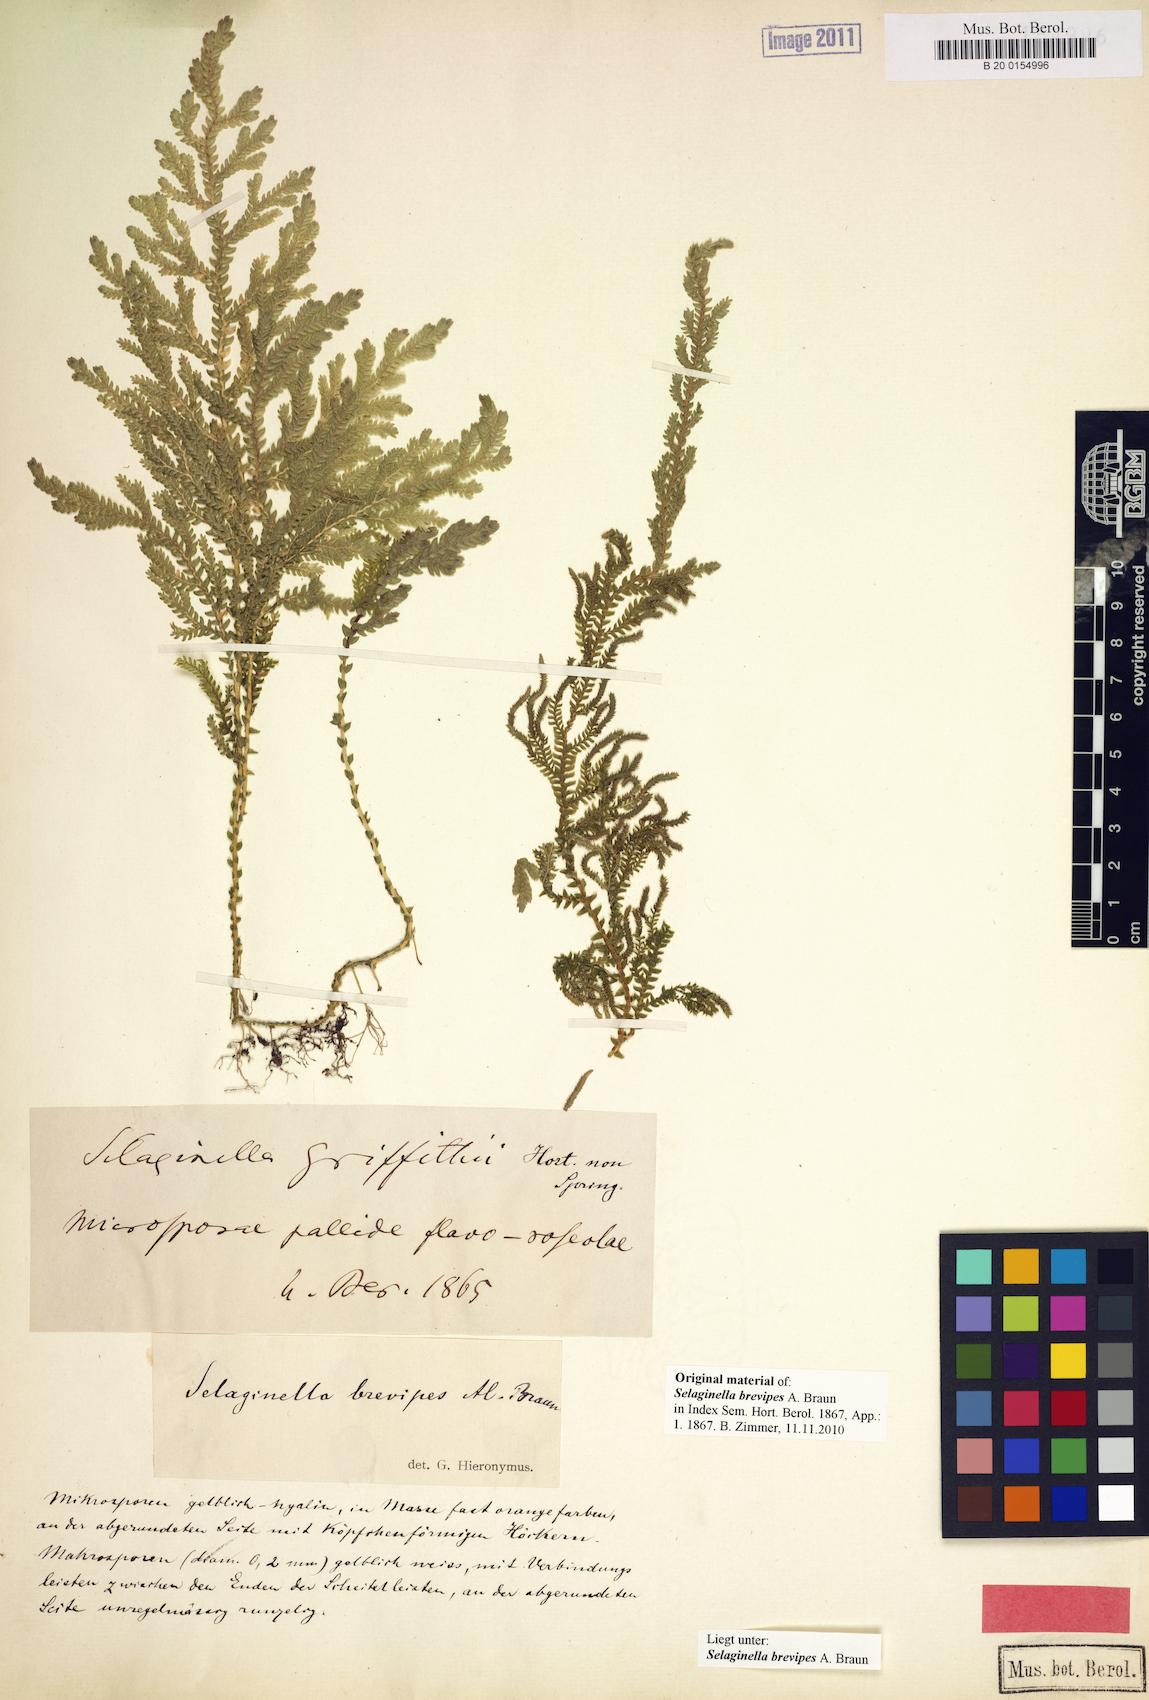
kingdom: Plantae
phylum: Tracheophyta
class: Lycopodiopsida
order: Selaginellales
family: Selaginellaceae
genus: Selaginella
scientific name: Selaginella brevipes
